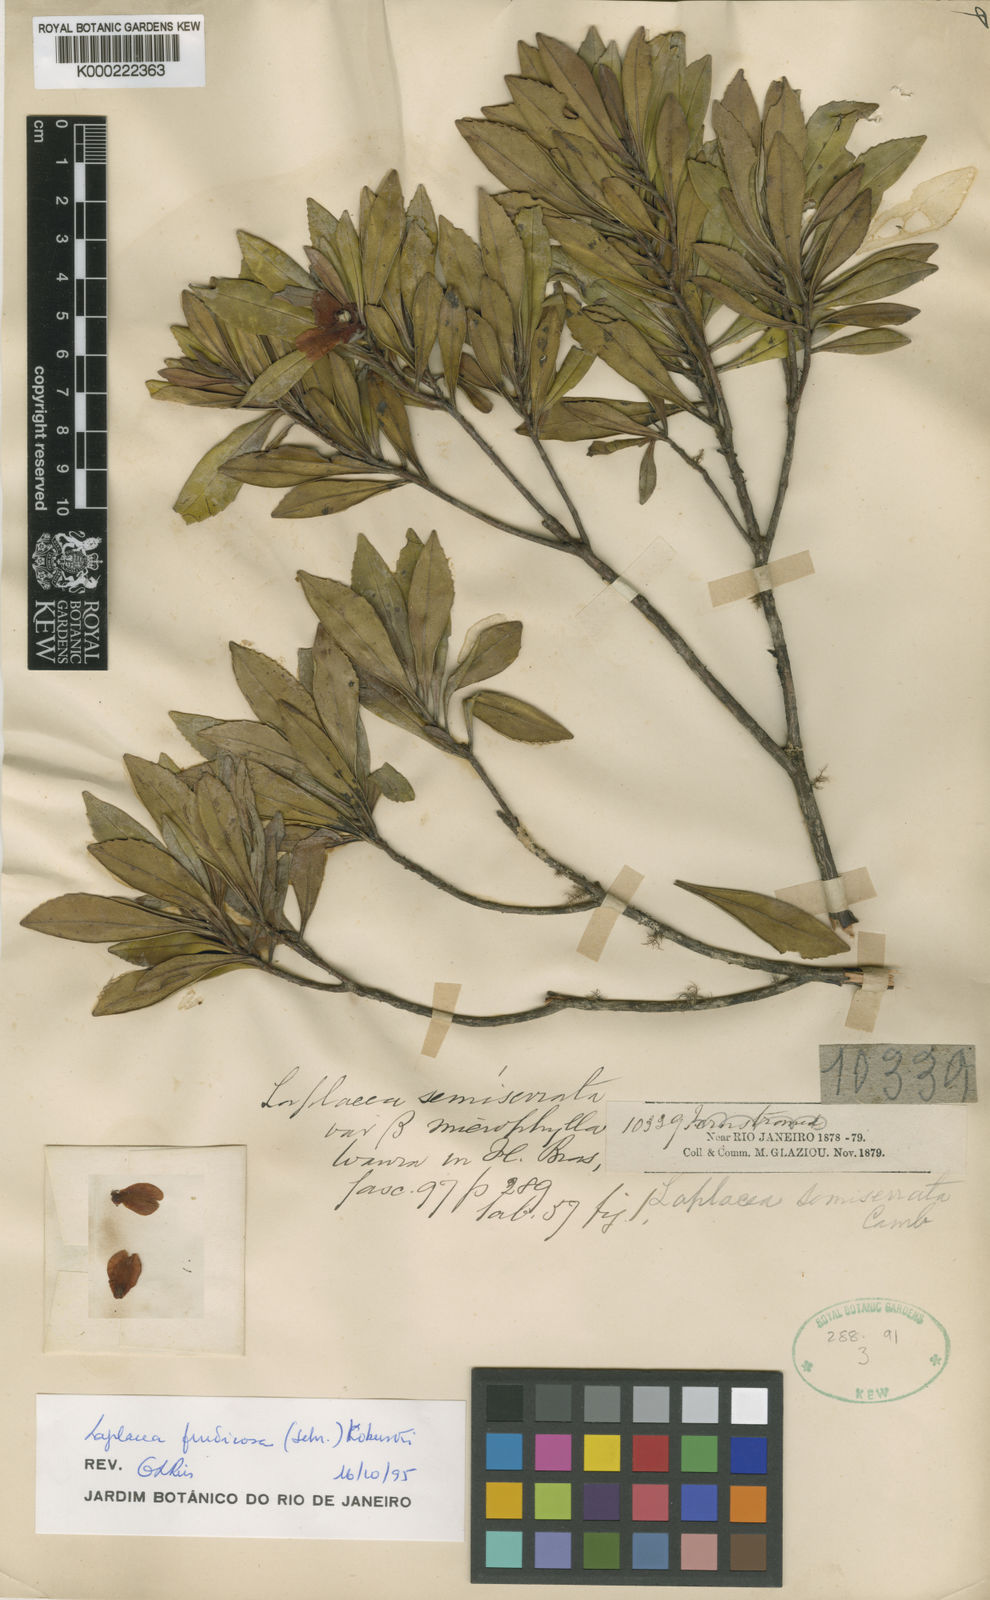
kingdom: Plantae
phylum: Tracheophyta
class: Magnoliopsida
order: Ericales
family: Theaceae
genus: Gordonia
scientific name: Gordonia fruticosa
